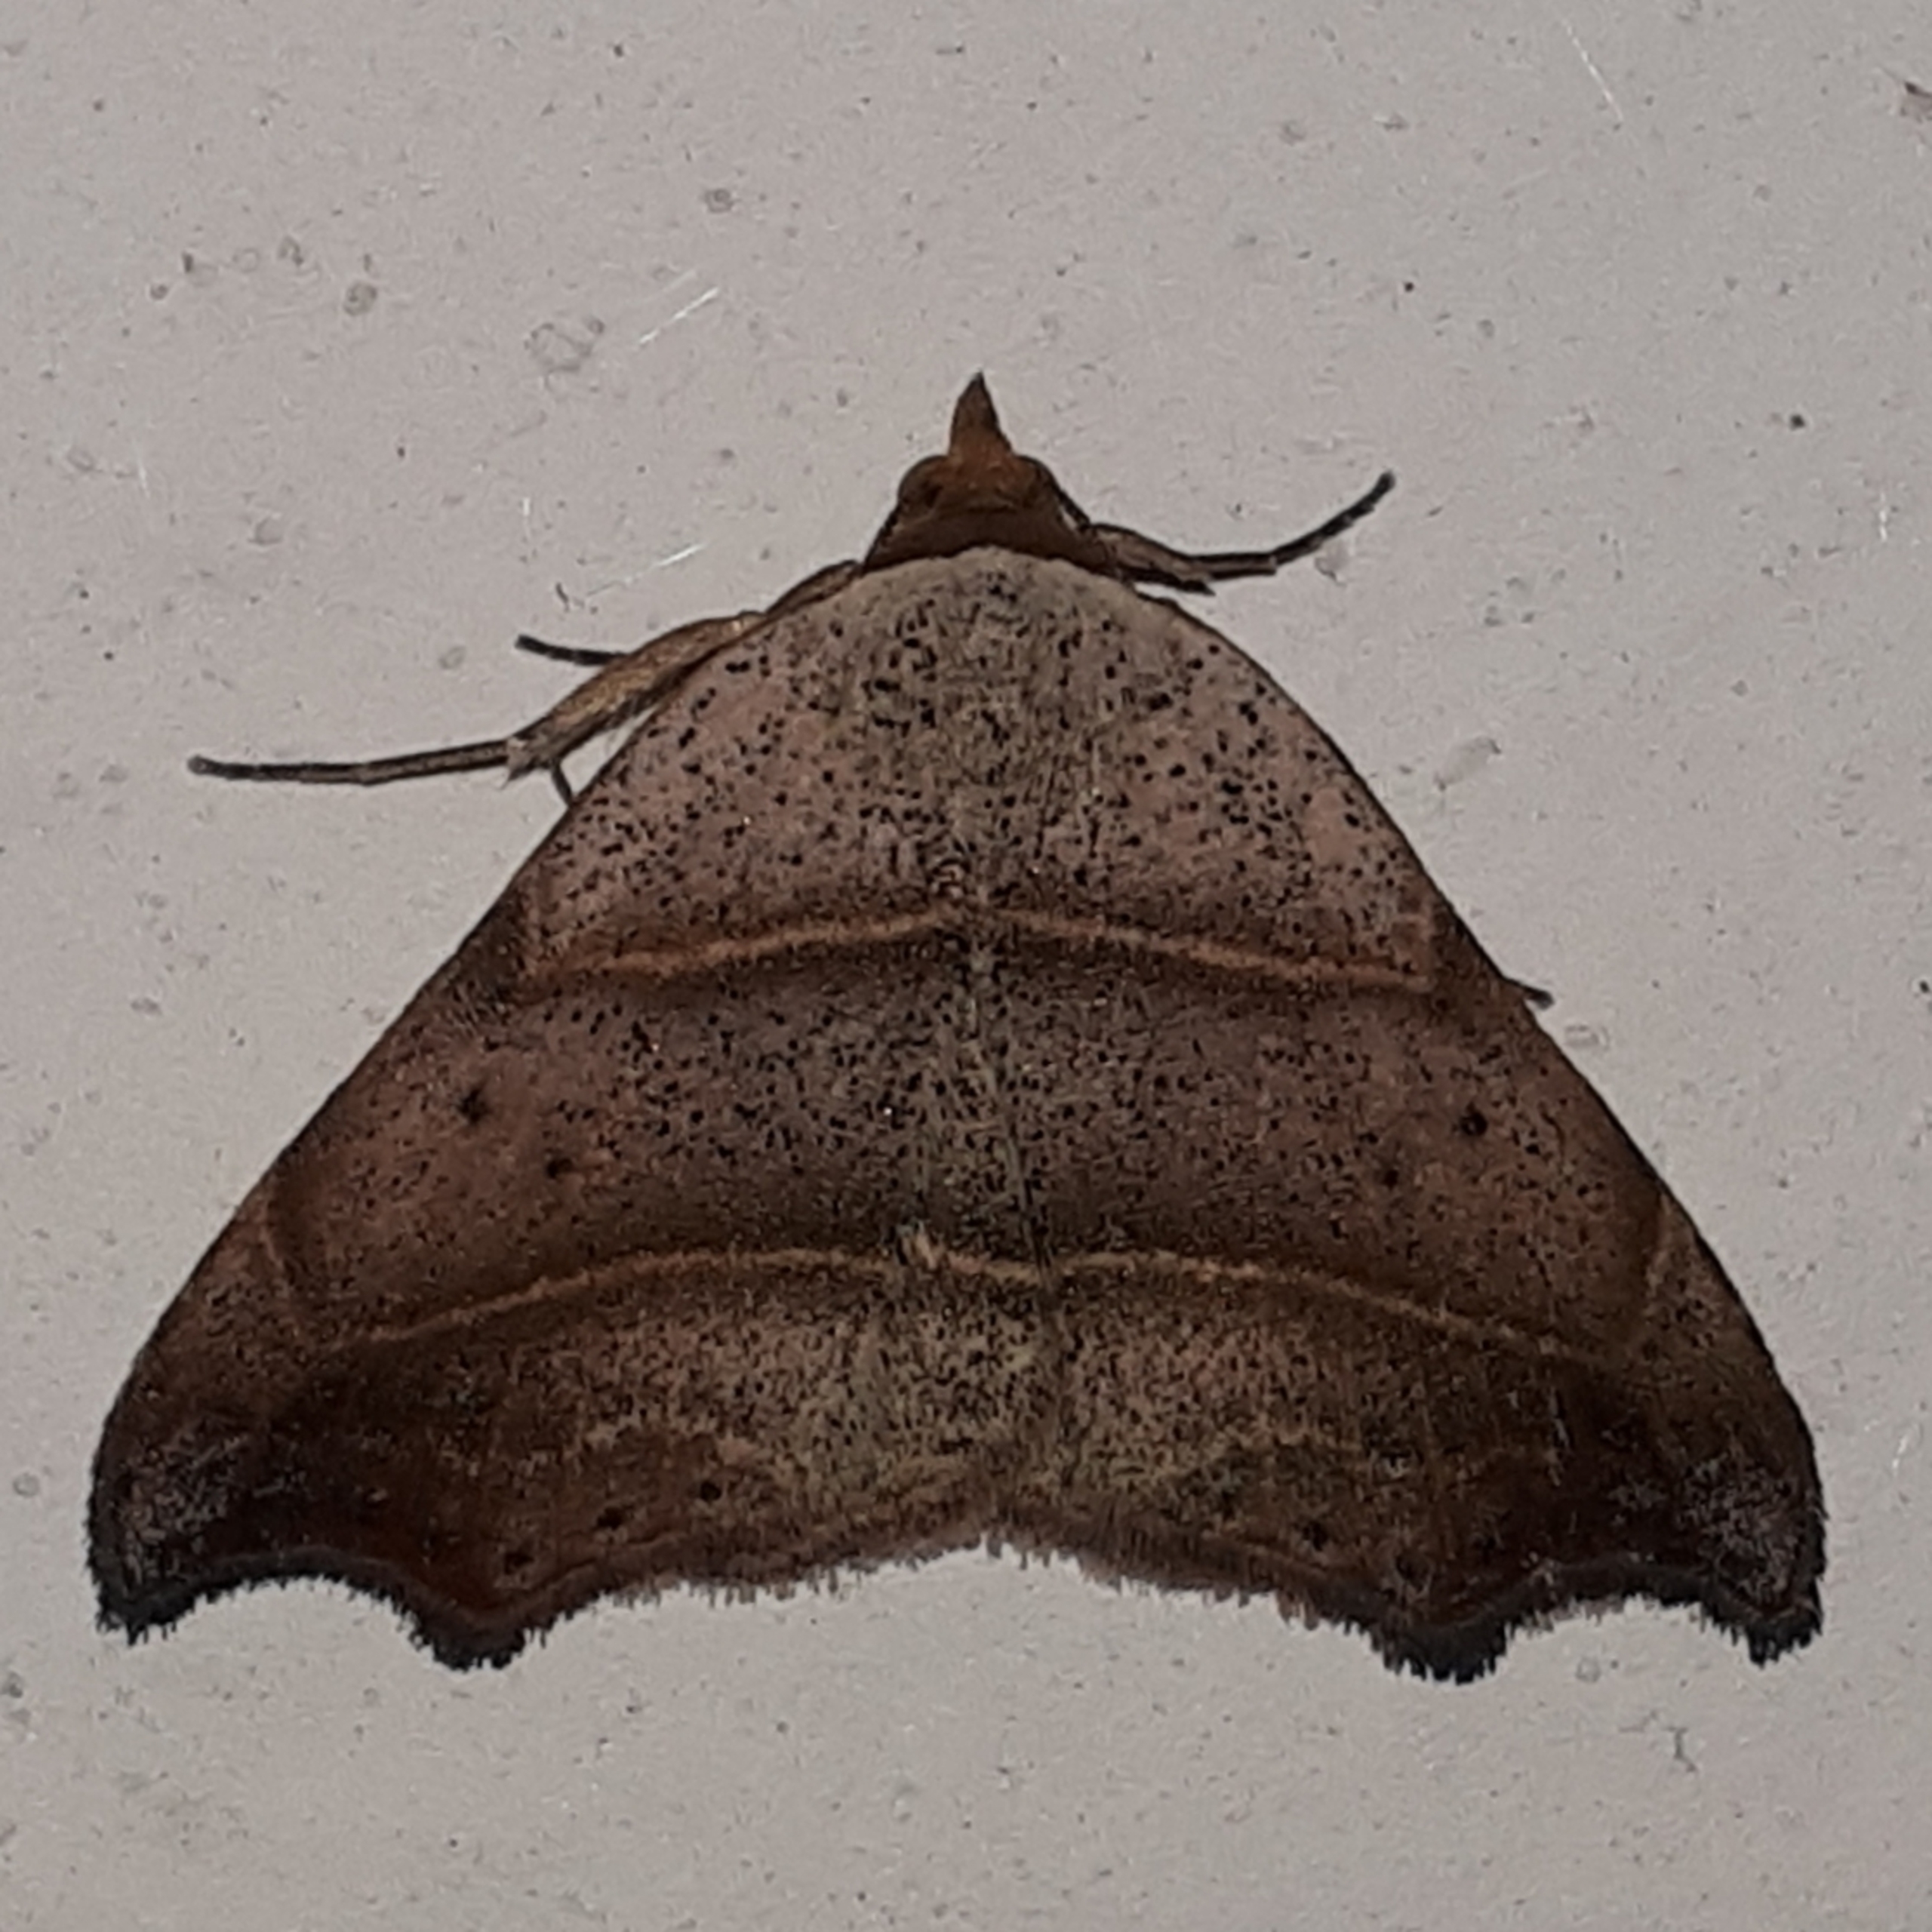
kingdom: Animalia
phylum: Arthropoda
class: Insecta
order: Lepidoptera
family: Erebidae
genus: Laspeyria
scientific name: Laspeyria flexula
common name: Grå lavugle
